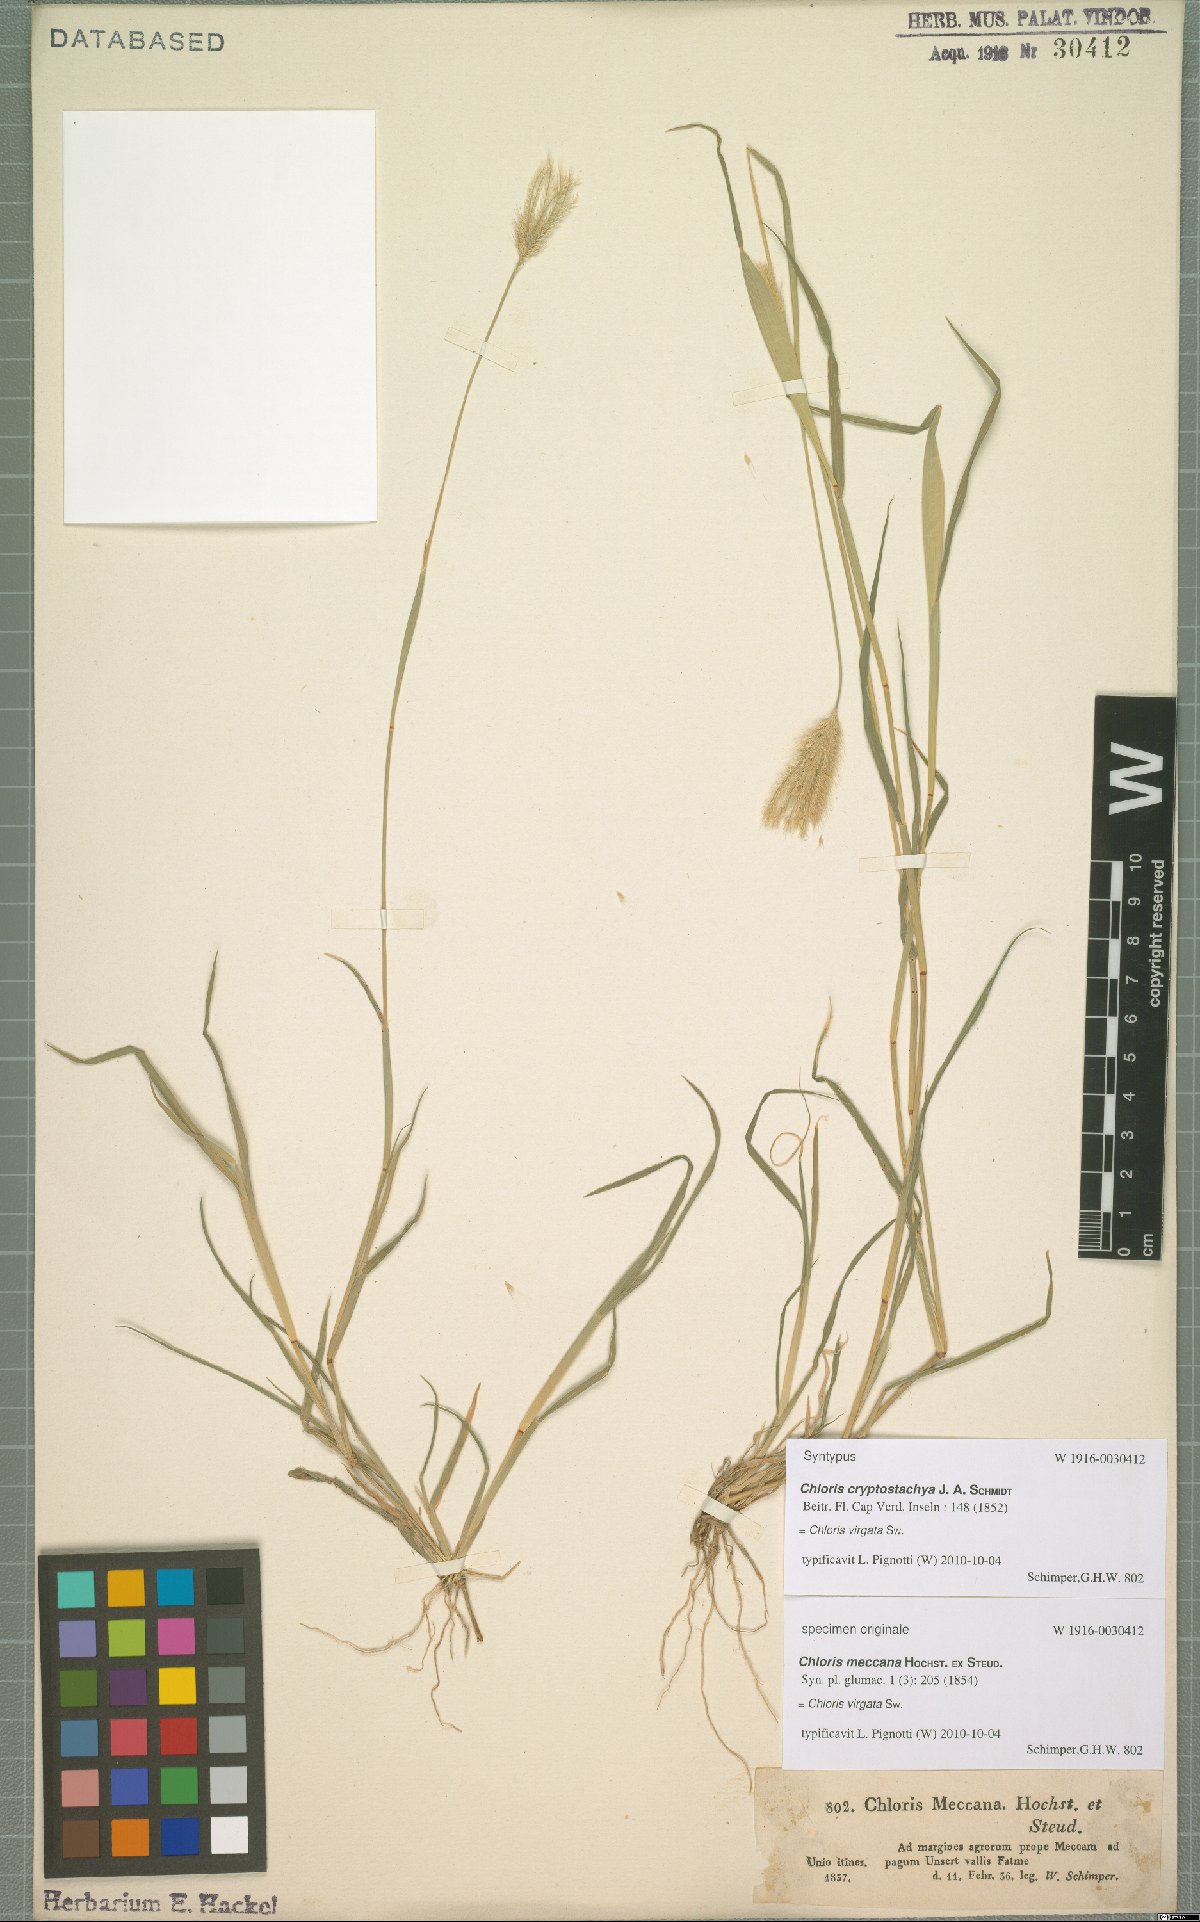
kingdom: Plantae
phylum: Tracheophyta
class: Liliopsida
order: Poales
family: Poaceae
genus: Chloris
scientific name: Chloris virgata
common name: Feathery rhodes-grass
